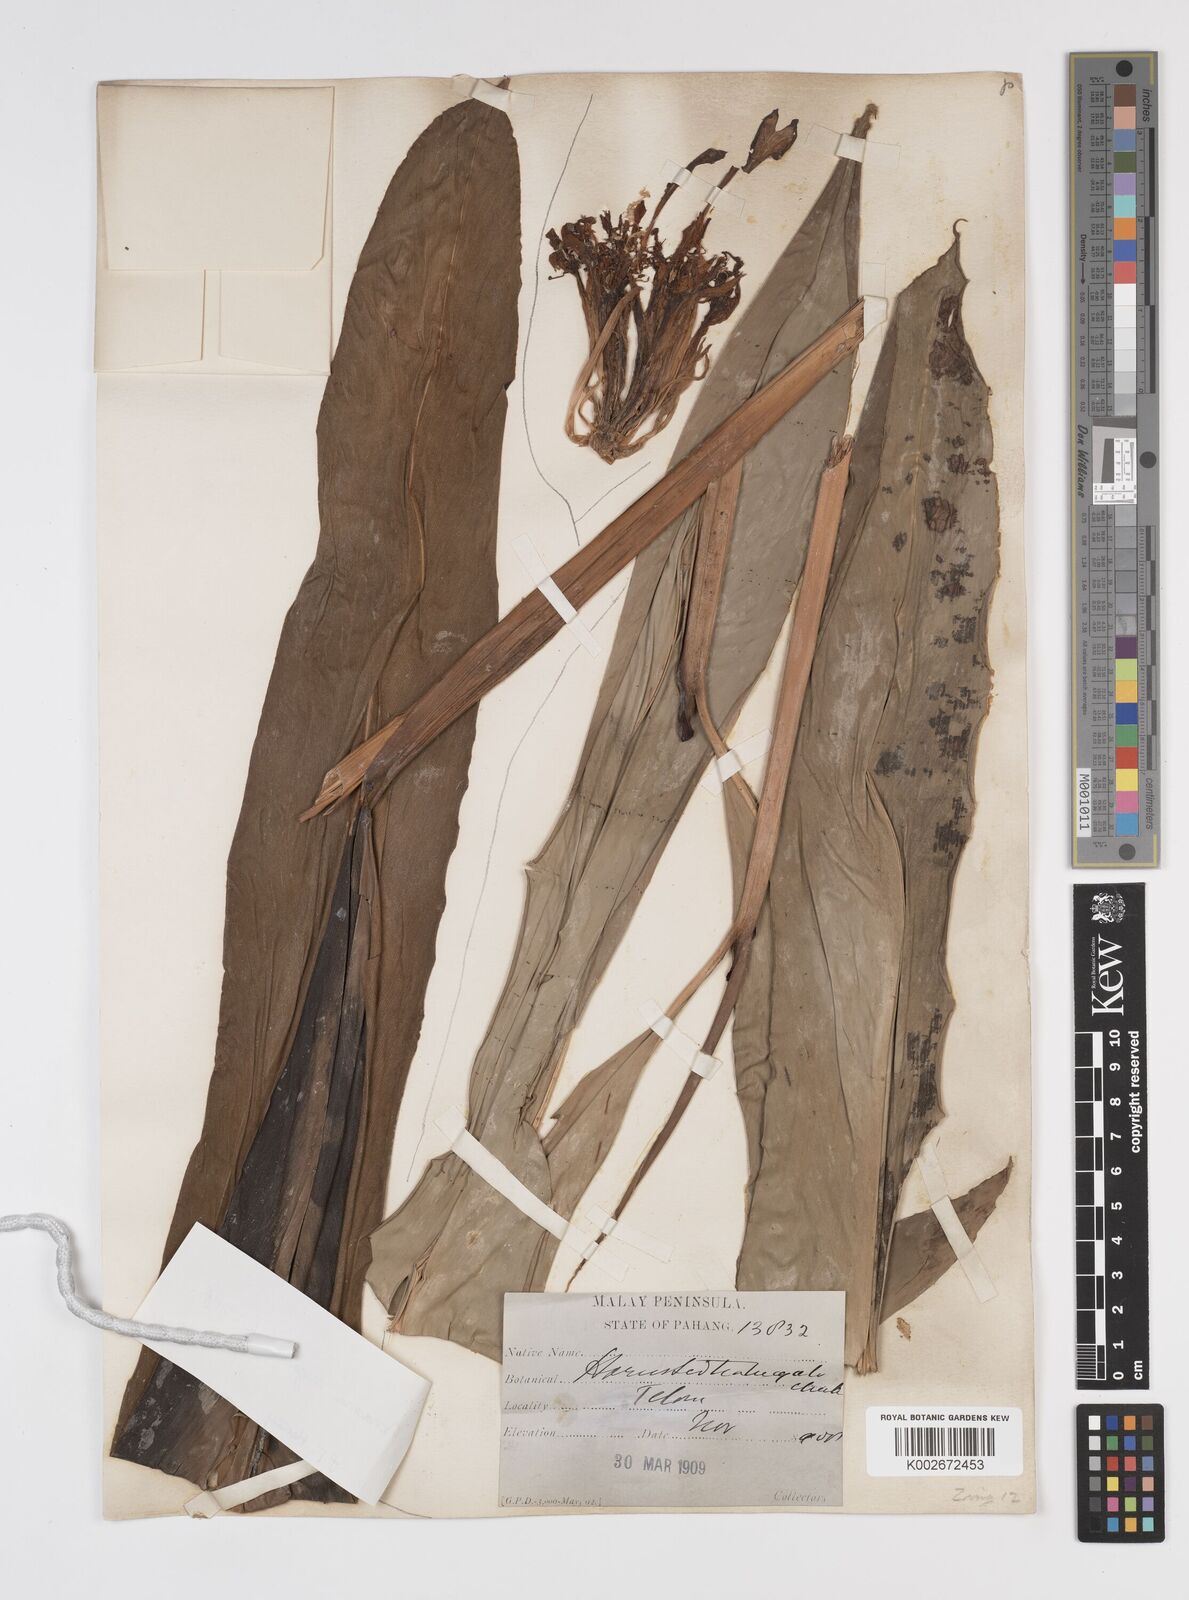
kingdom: Plantae
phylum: Tracheophyta
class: Liliopsida
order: Zingiberales
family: Zingiberaceae
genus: Etlingera
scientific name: Etlingera littoralis
